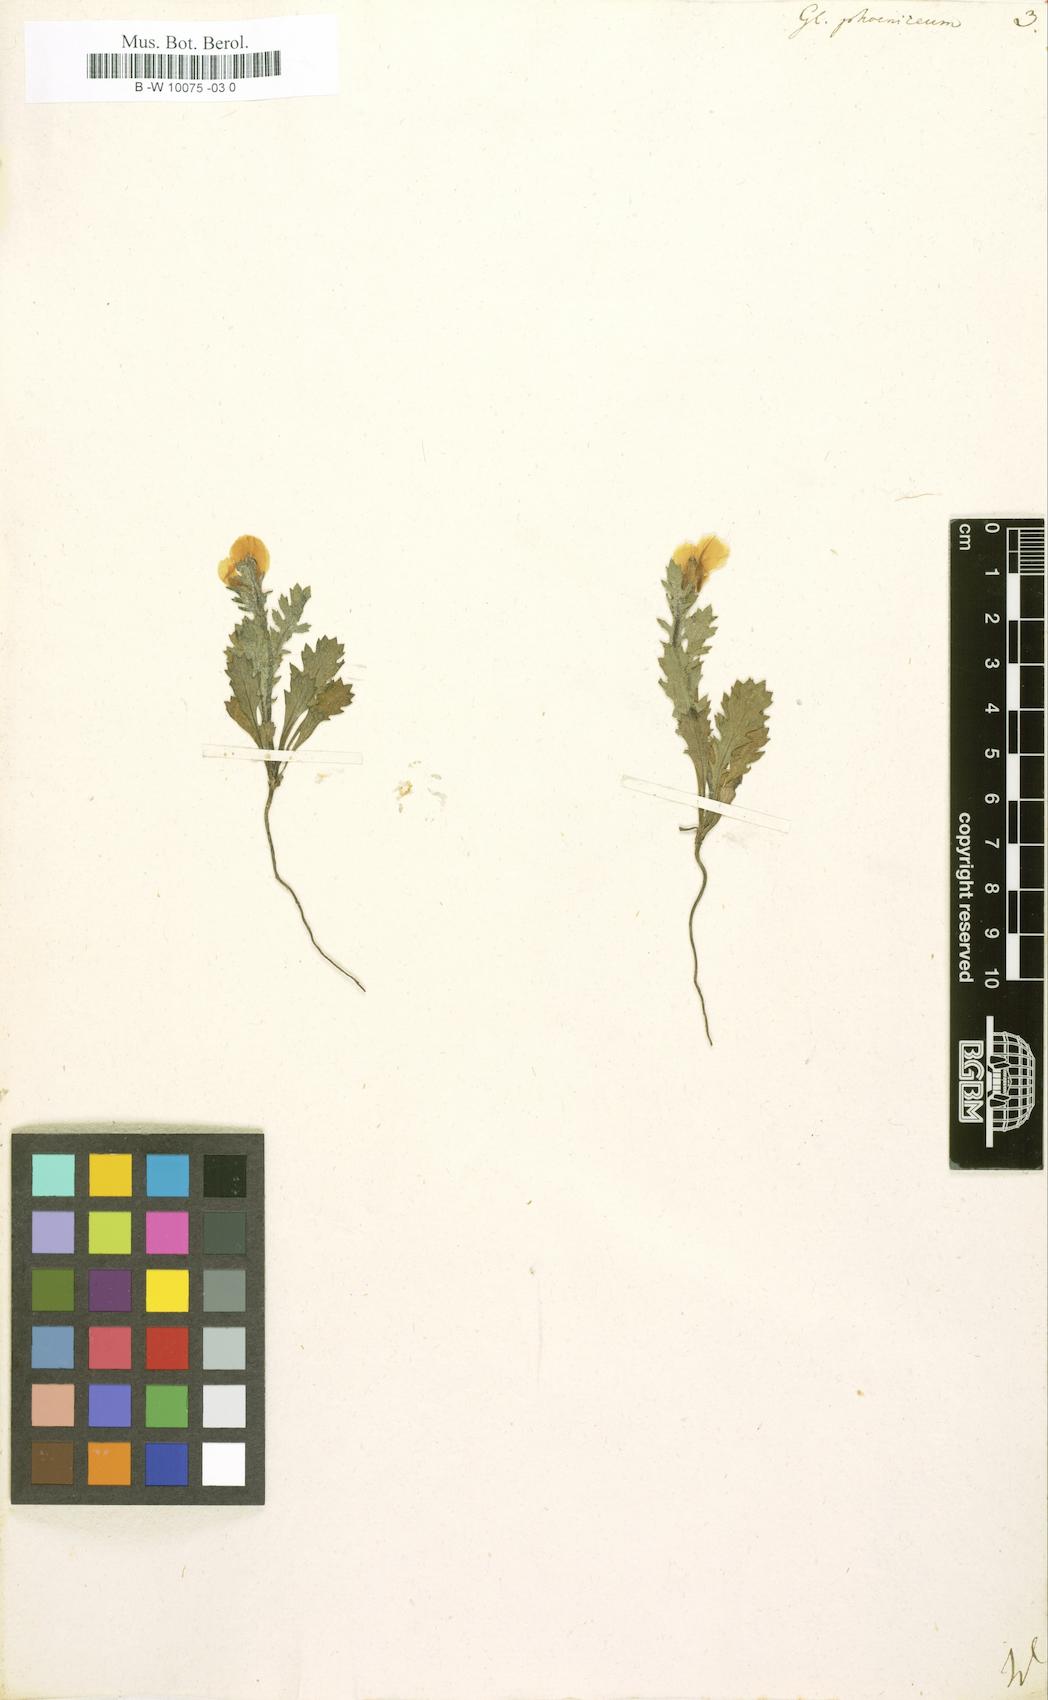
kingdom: Plantae
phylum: Tracheophyta
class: Magnoliopsida
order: Ranunculales
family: Papaveraceae
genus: Glaucium
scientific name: Glaucium
